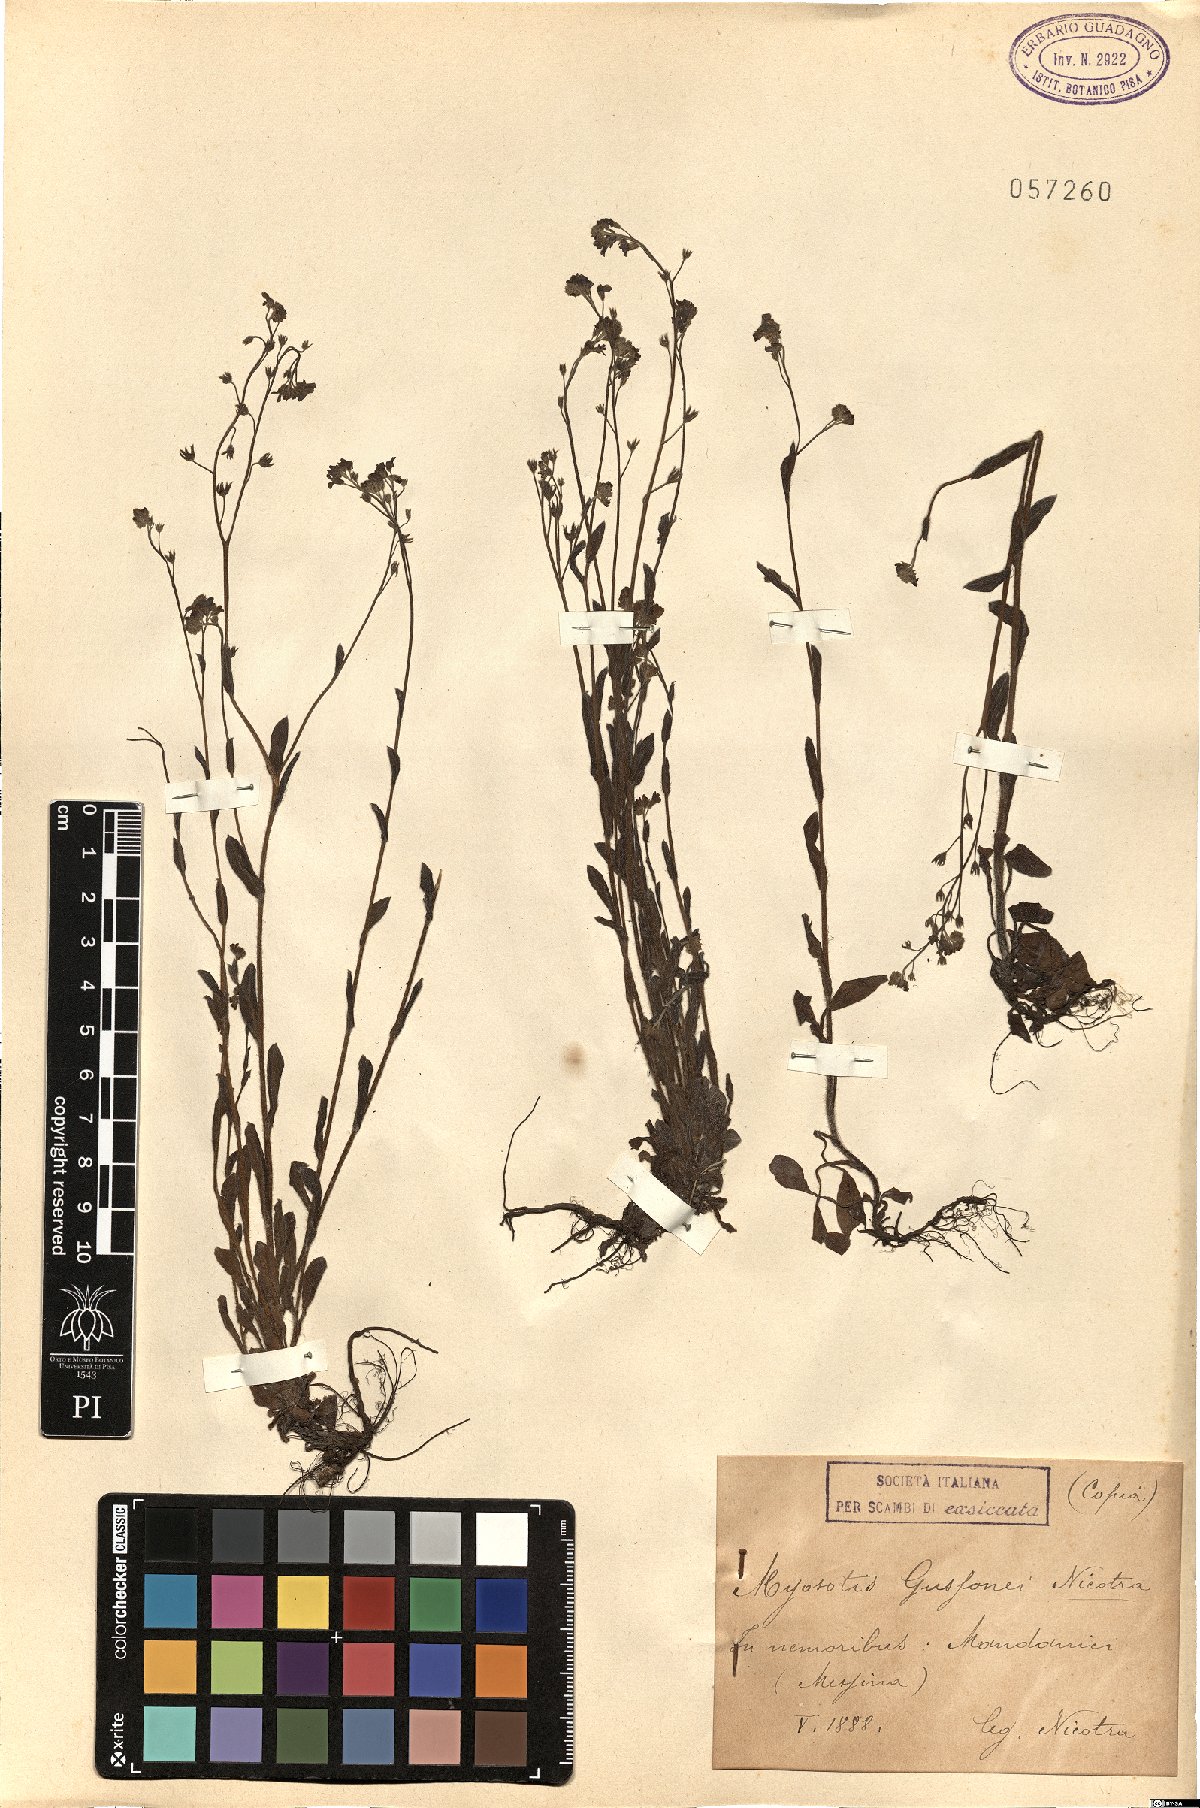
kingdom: Plantae
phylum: Tracheophyta
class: Magnoliopsida
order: Boraginales
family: Boraginaceae
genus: Myosotis
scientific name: Myosotis sicula
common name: Jersey forget-me-not
